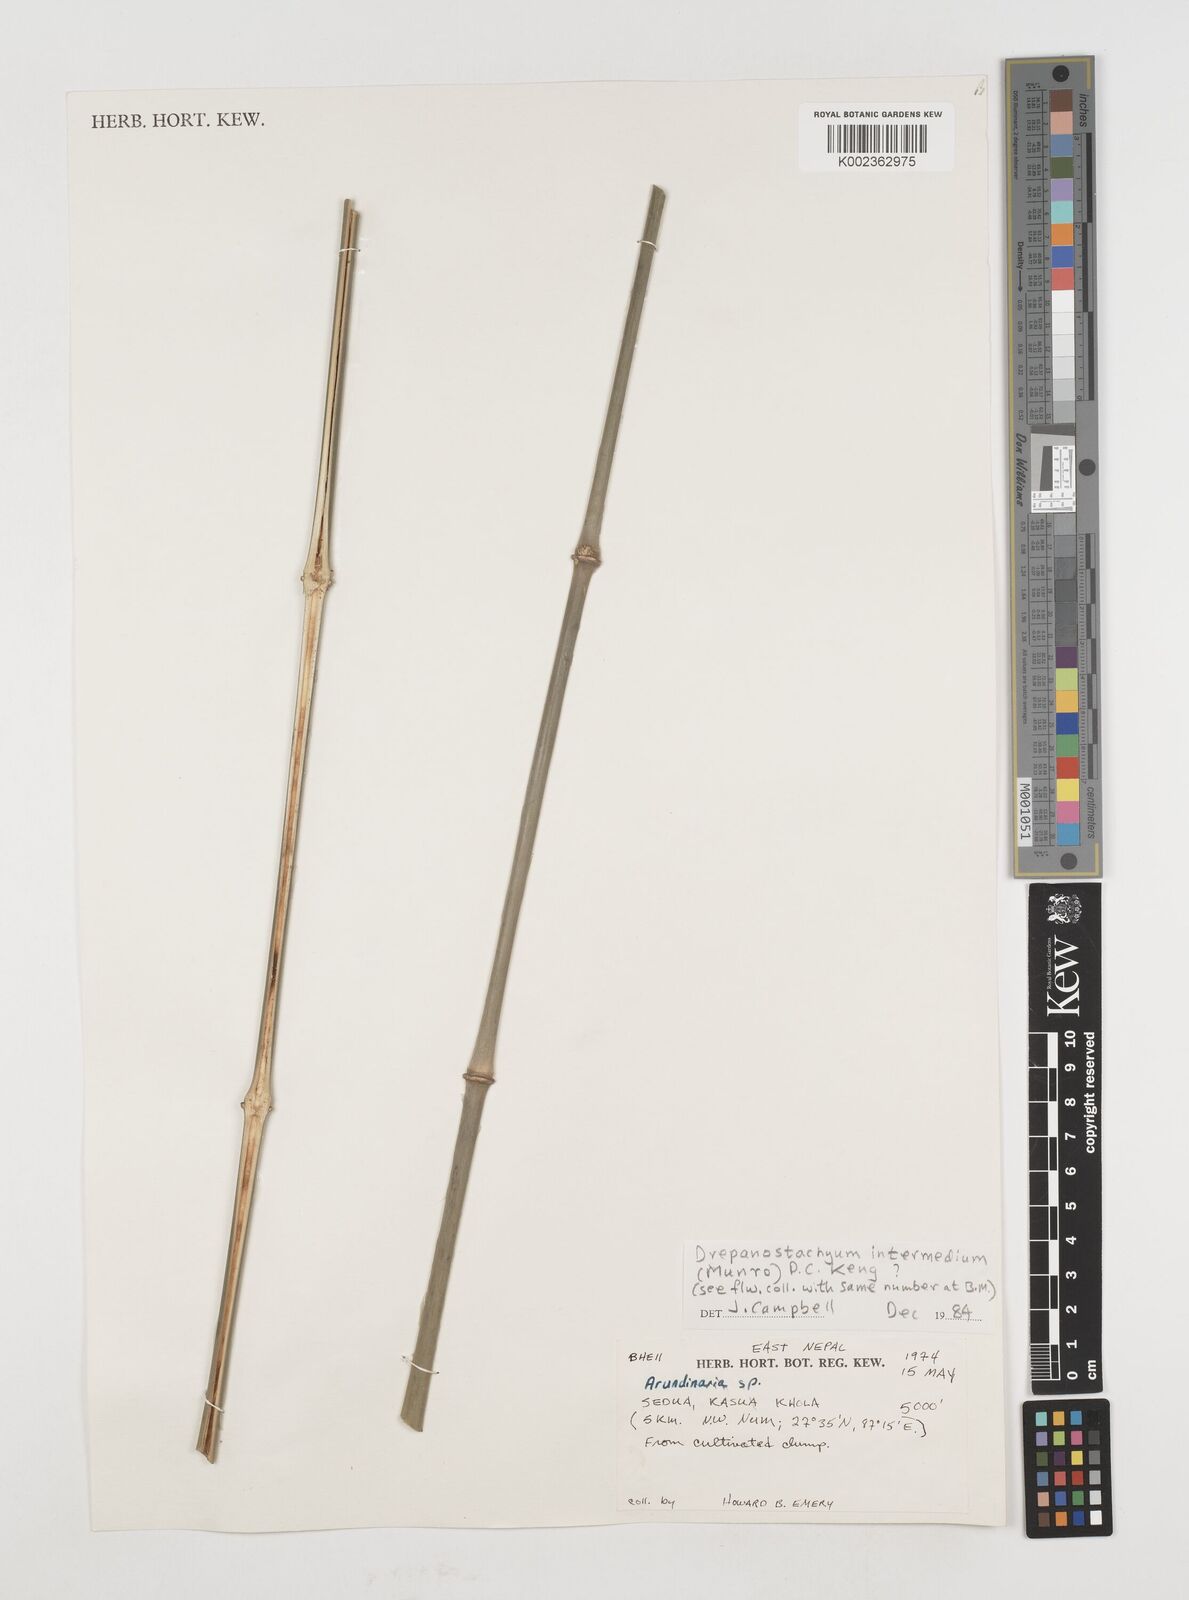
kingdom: Plantae
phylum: Tracheophyta
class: Liliopsida
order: Poales
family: Poaceae
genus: Drepanostachyum
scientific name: Drepanostachyum intermedium
